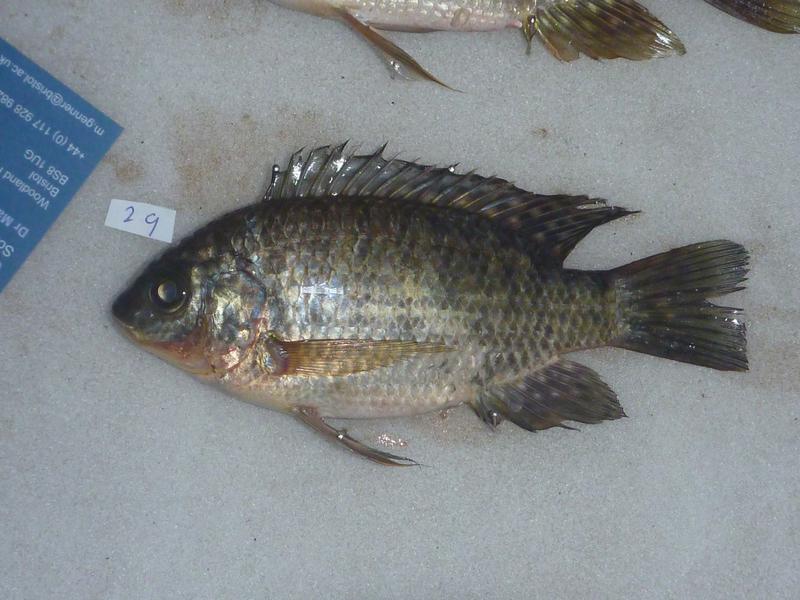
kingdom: Animalia
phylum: Chordata
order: Perciformes
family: Cichlidae
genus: Oreochromis
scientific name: Oreochromis leucostictus
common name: Blue spotted tilapia
